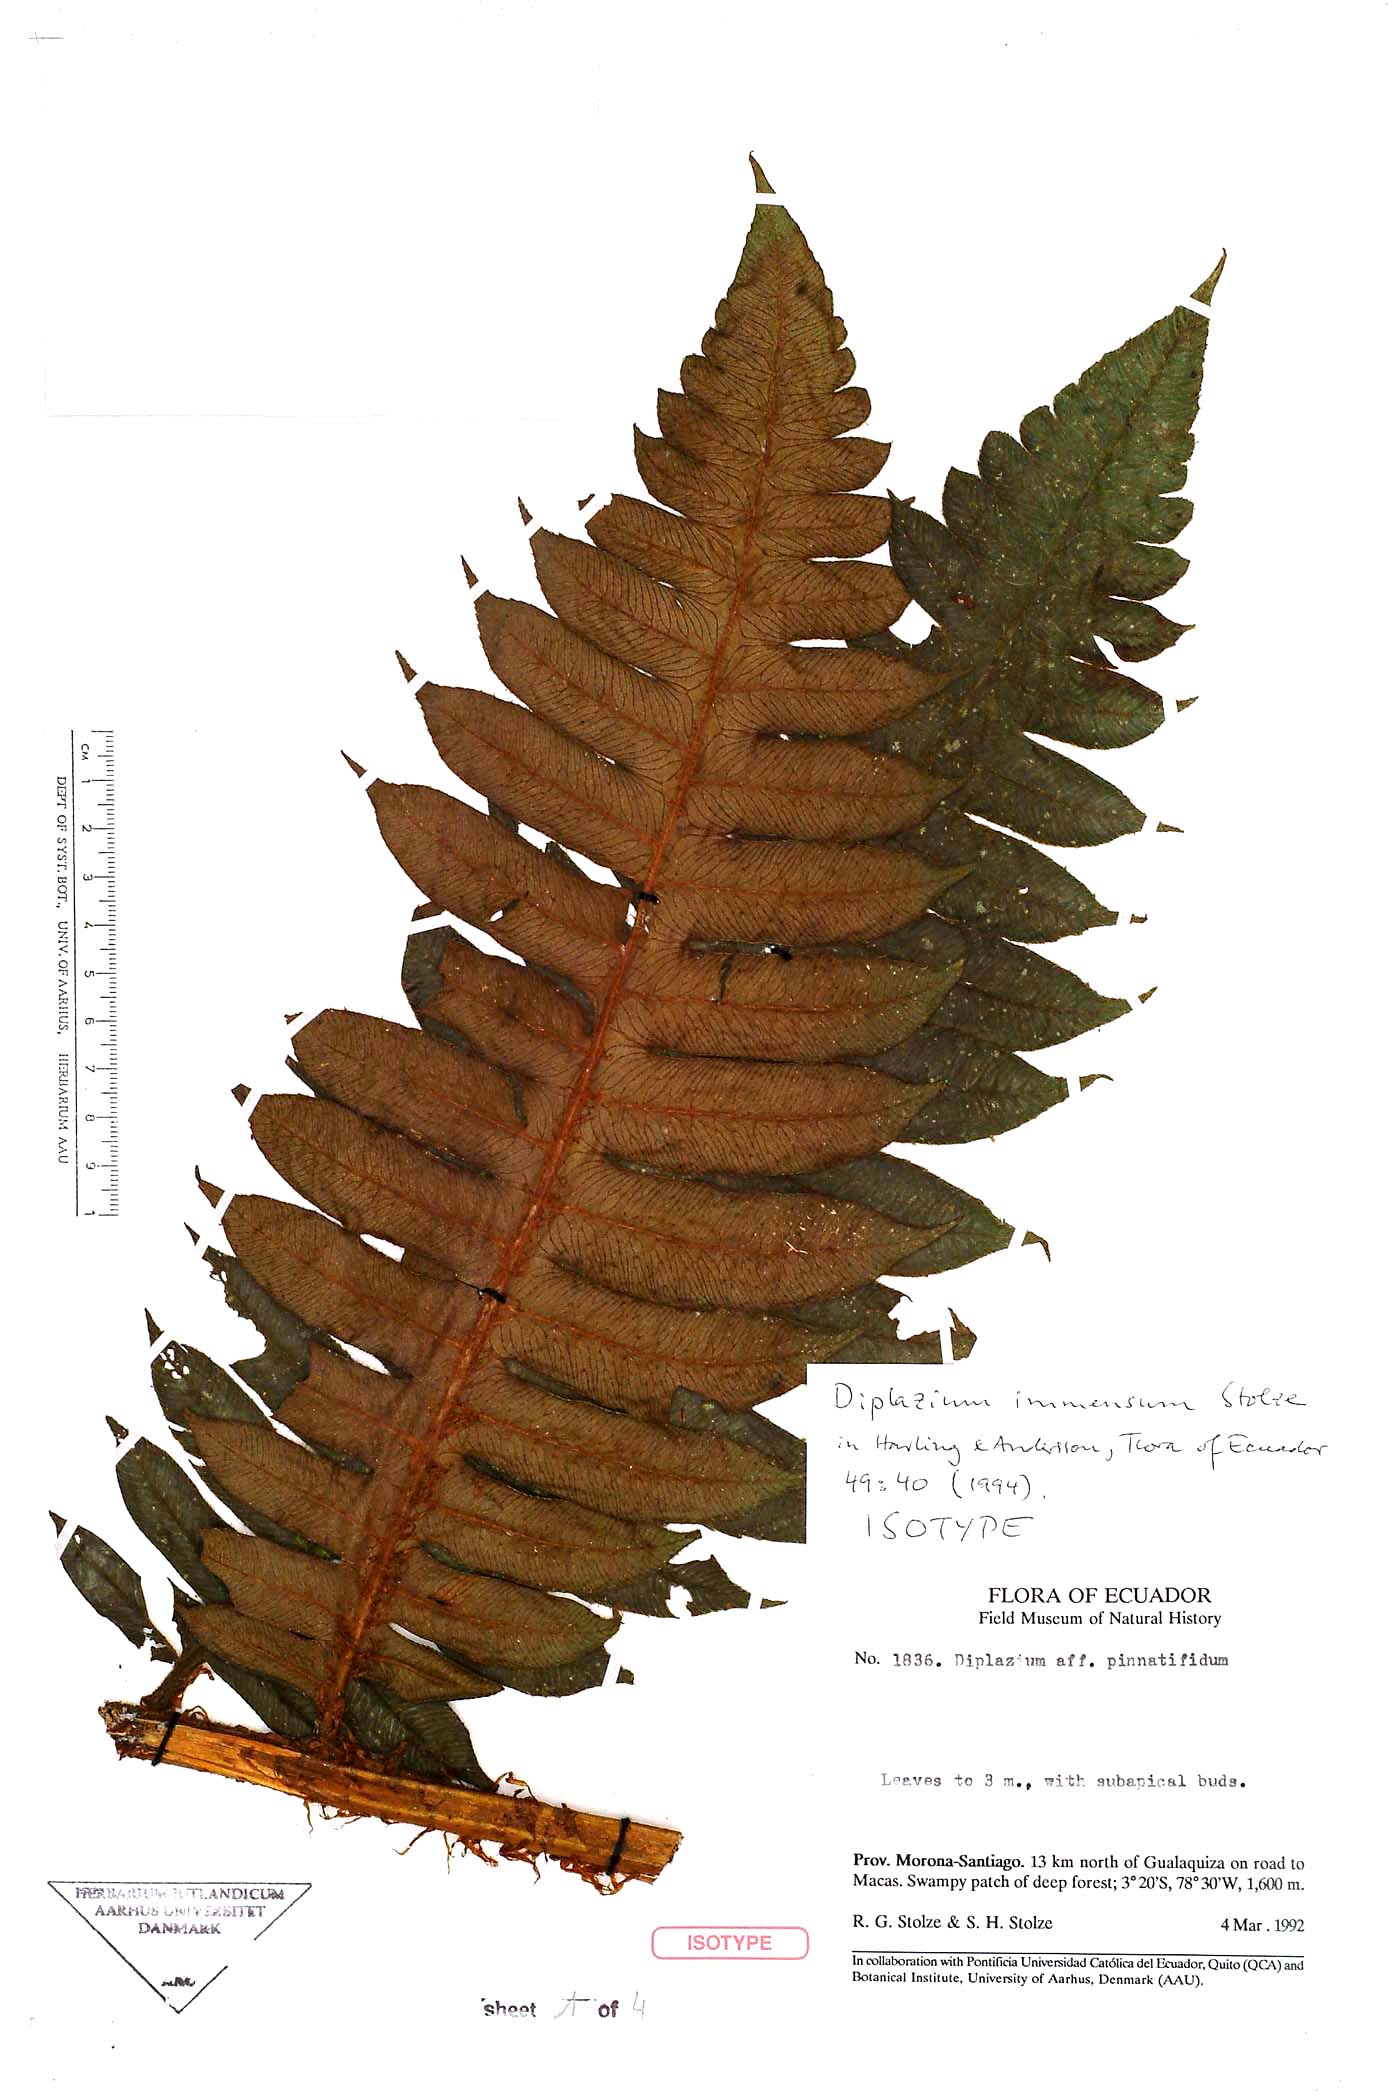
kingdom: Plantae
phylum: Tracheophyta
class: Polypodiopsida
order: Polypodiales
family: Athyriaceae
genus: Diplazium
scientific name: Diplazium immensum
